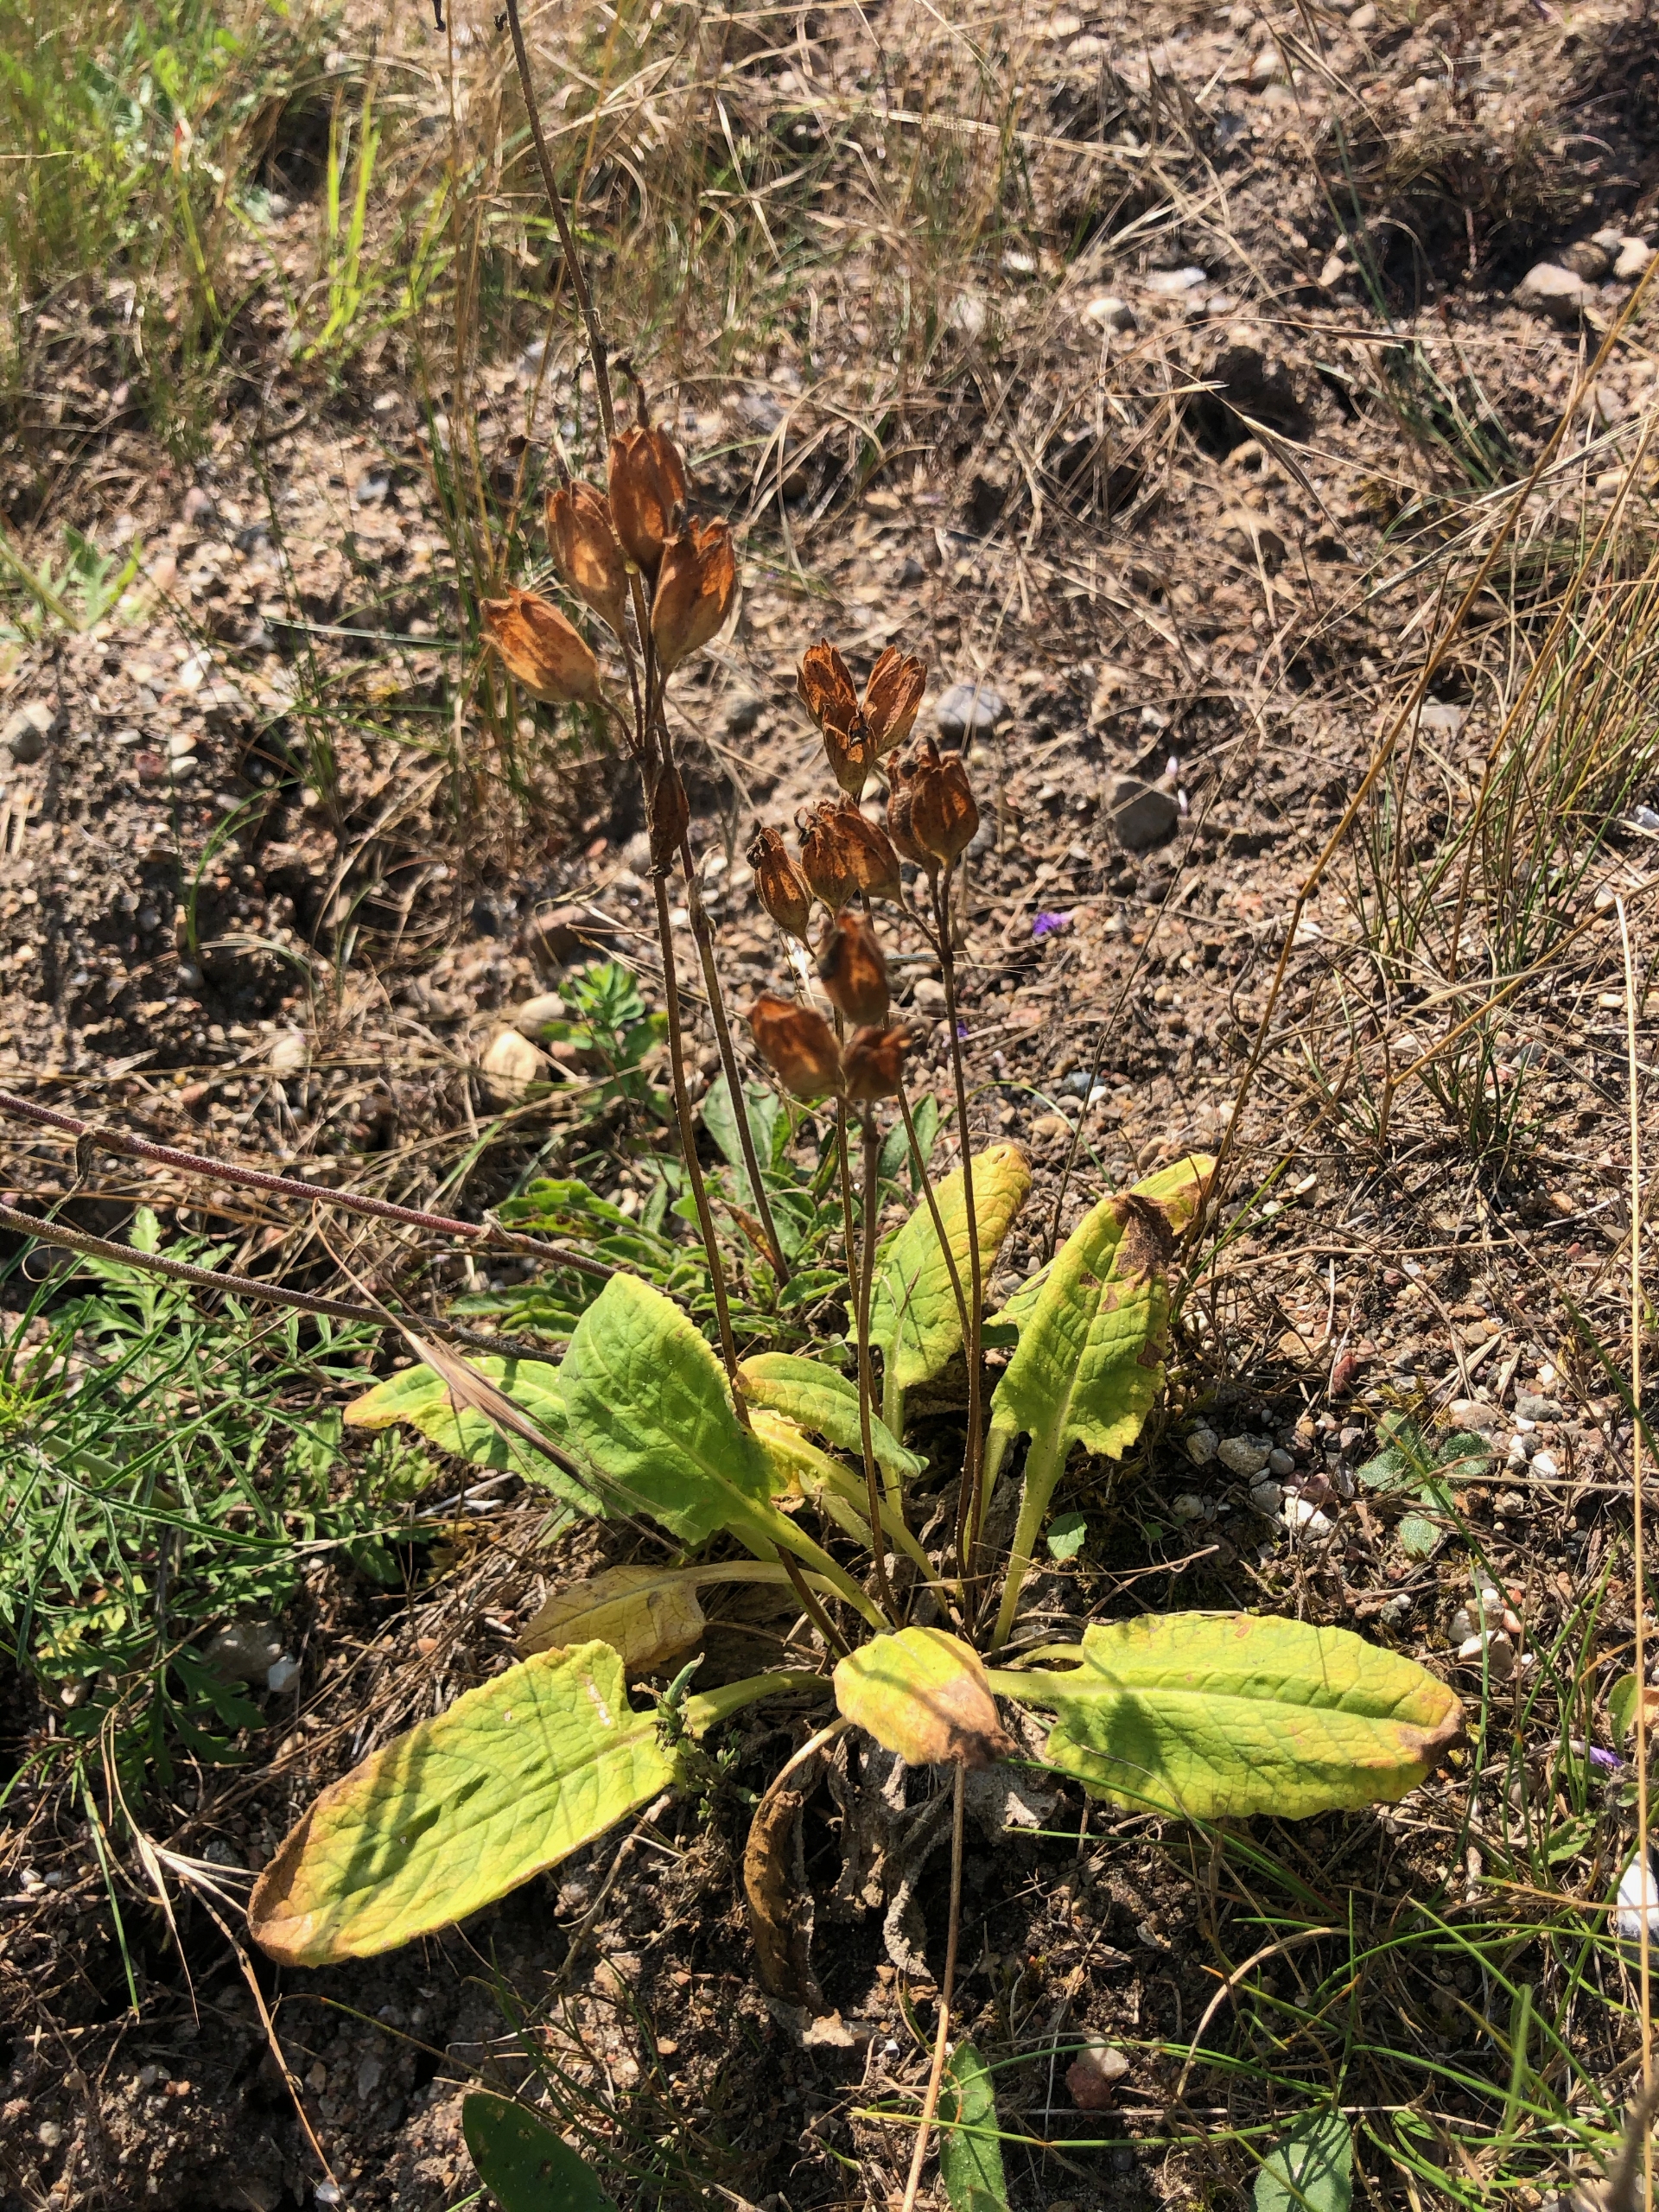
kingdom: Plantae
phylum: Tracheophyta
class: Magnoliopsida
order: Ericales
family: Primulaceae
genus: Primula
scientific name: Primula veris
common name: Hulkravet kodriver
